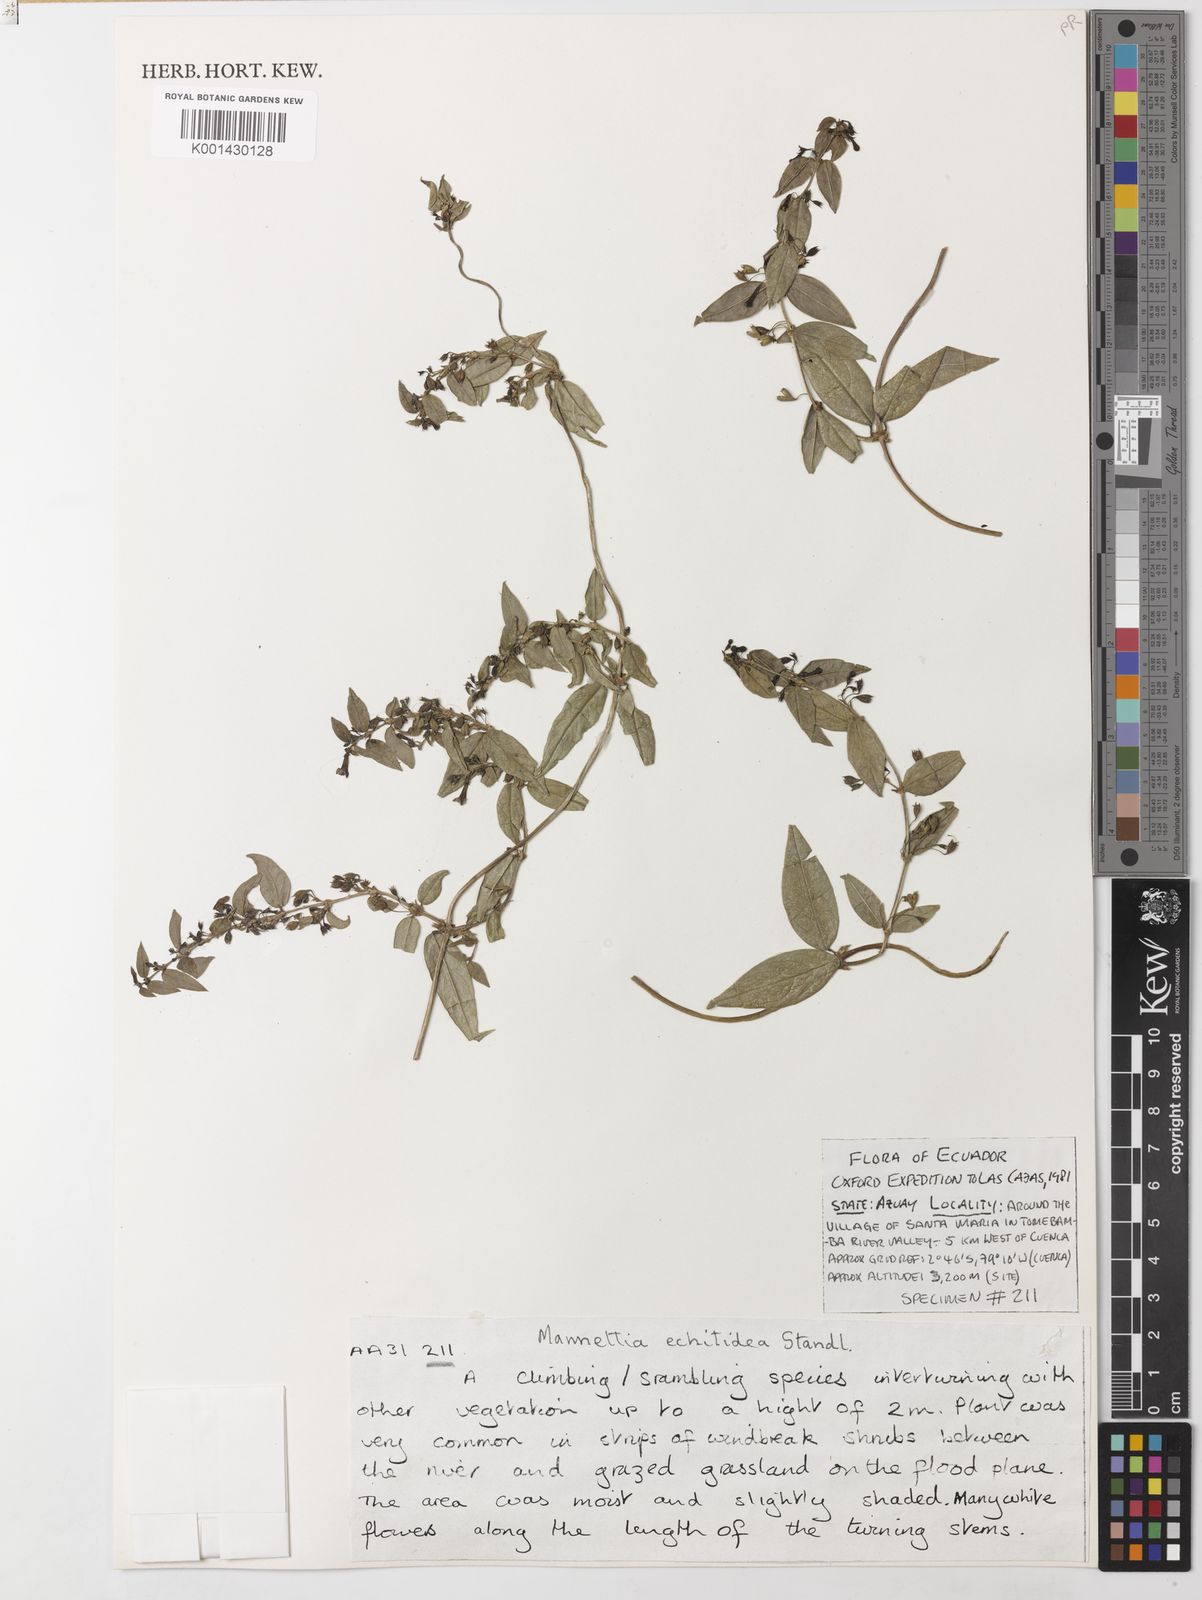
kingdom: Plantae
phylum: Tracheophyta
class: Magnoliopsida
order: Gentianales
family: Rubiaceae
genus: Manettia
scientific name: Manettia echitidea
